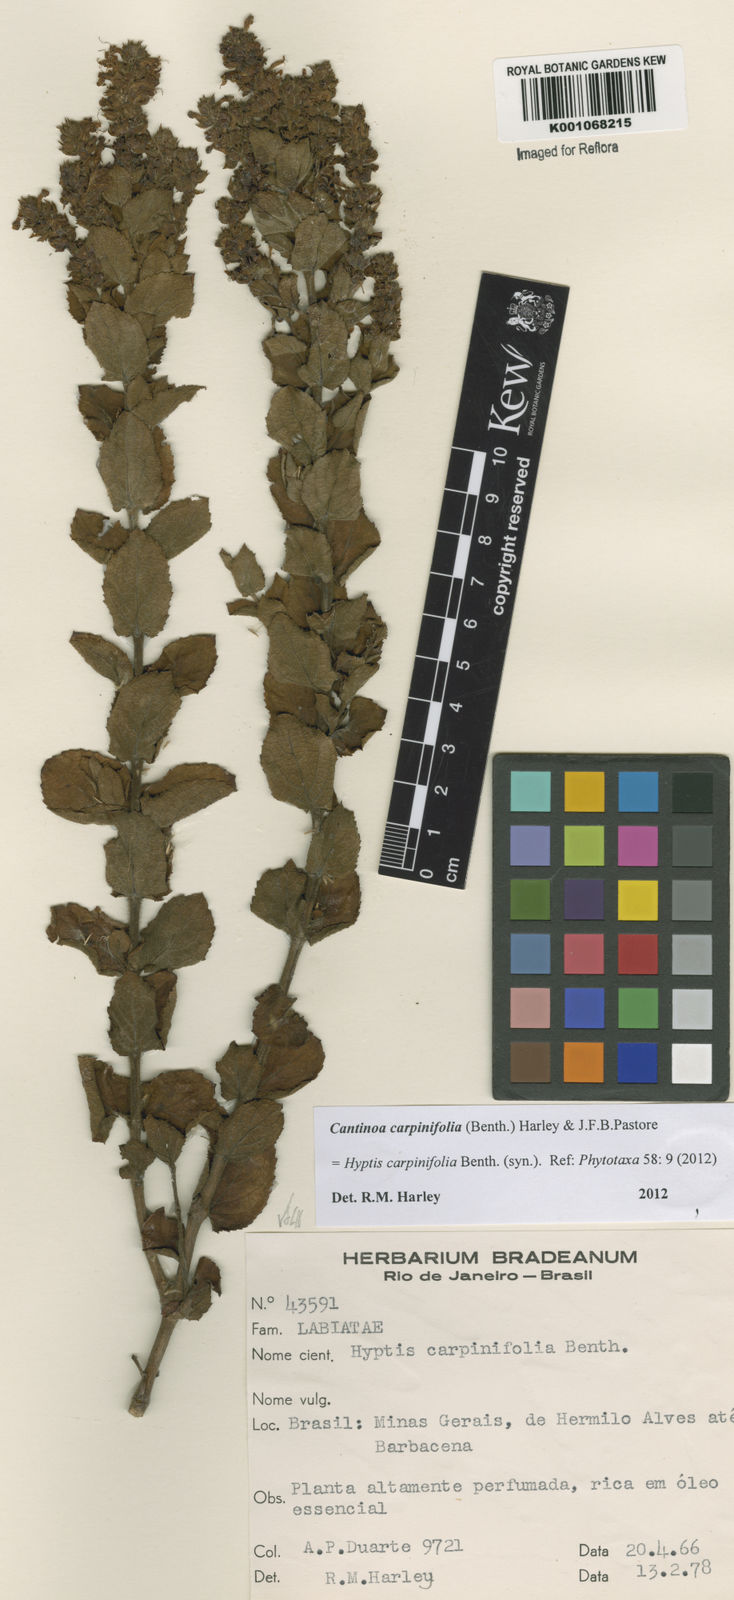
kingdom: Plantae
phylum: Tracheophyta
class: Magnoliopsida
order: Lamiales
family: Lamiaceae
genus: Cantinoa
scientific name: Cantinoa carpinifolia
